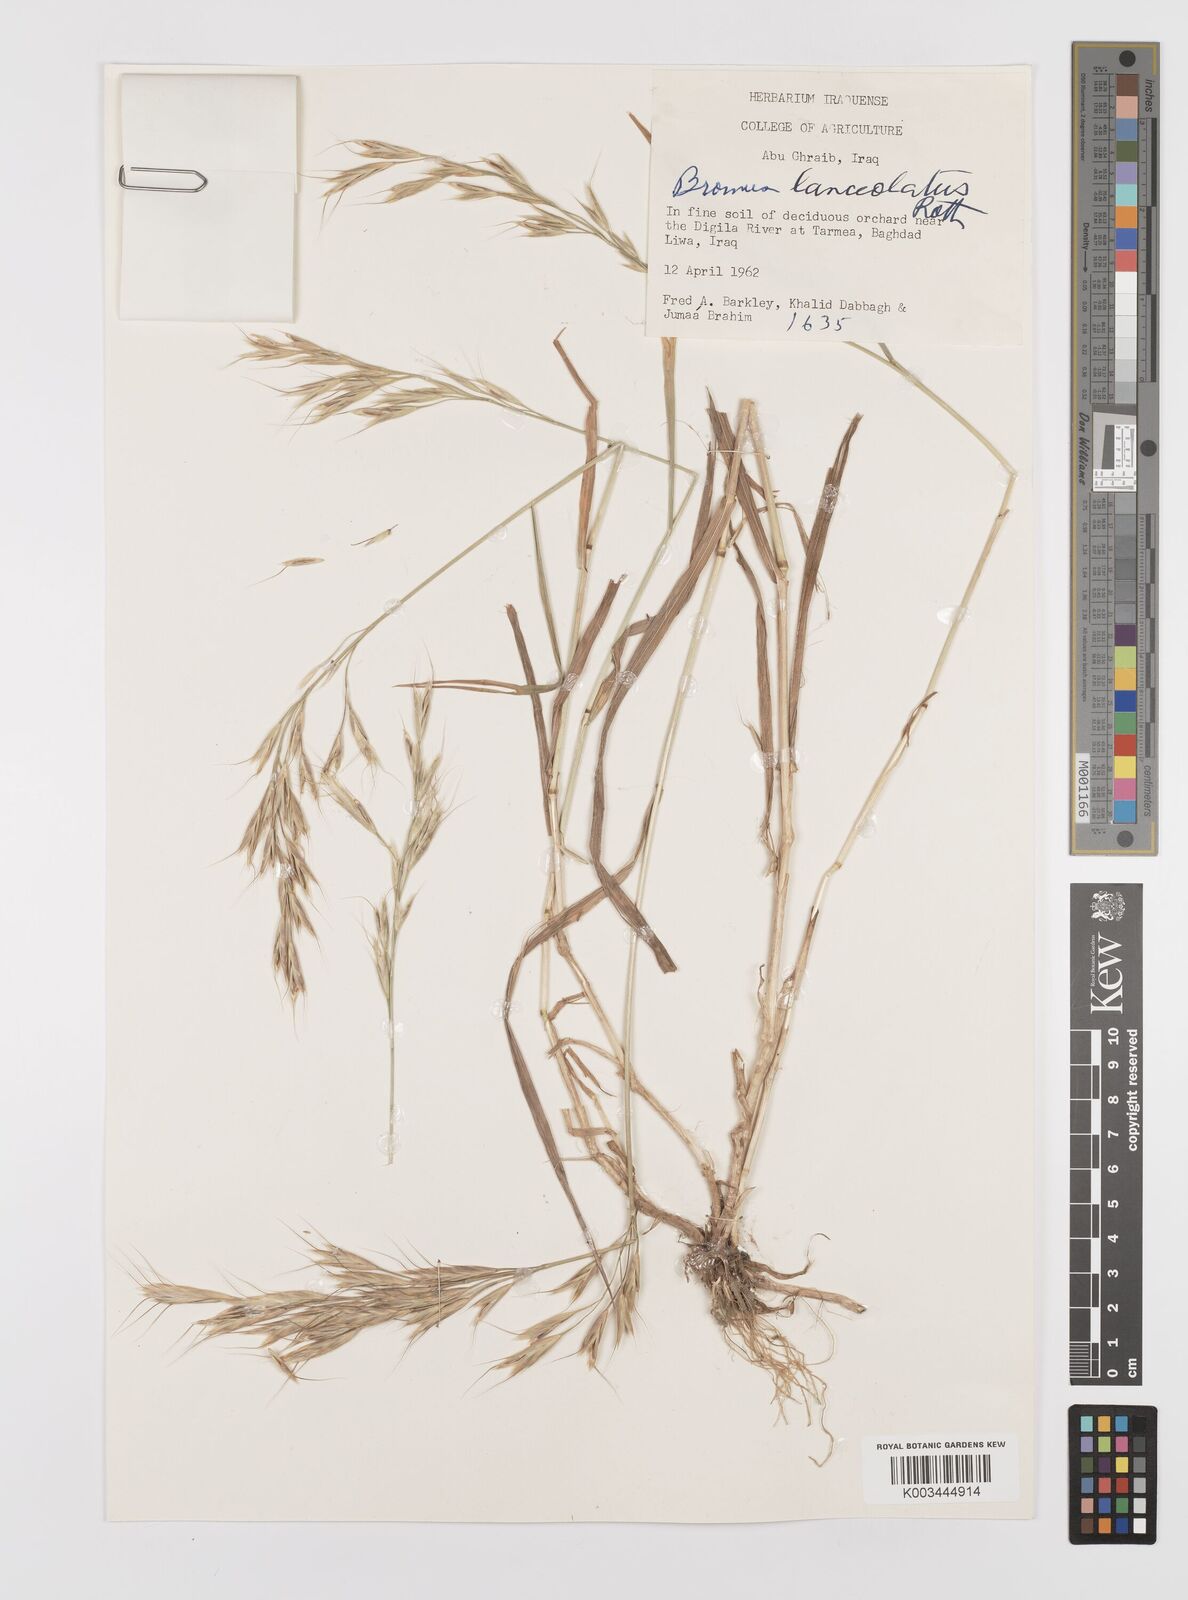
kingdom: Plantae
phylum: Tracheophyta
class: Liliopsida
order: Poales
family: Poaceae
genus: Bromus
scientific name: Bromus lanceolatus
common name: Mediterranean brome
